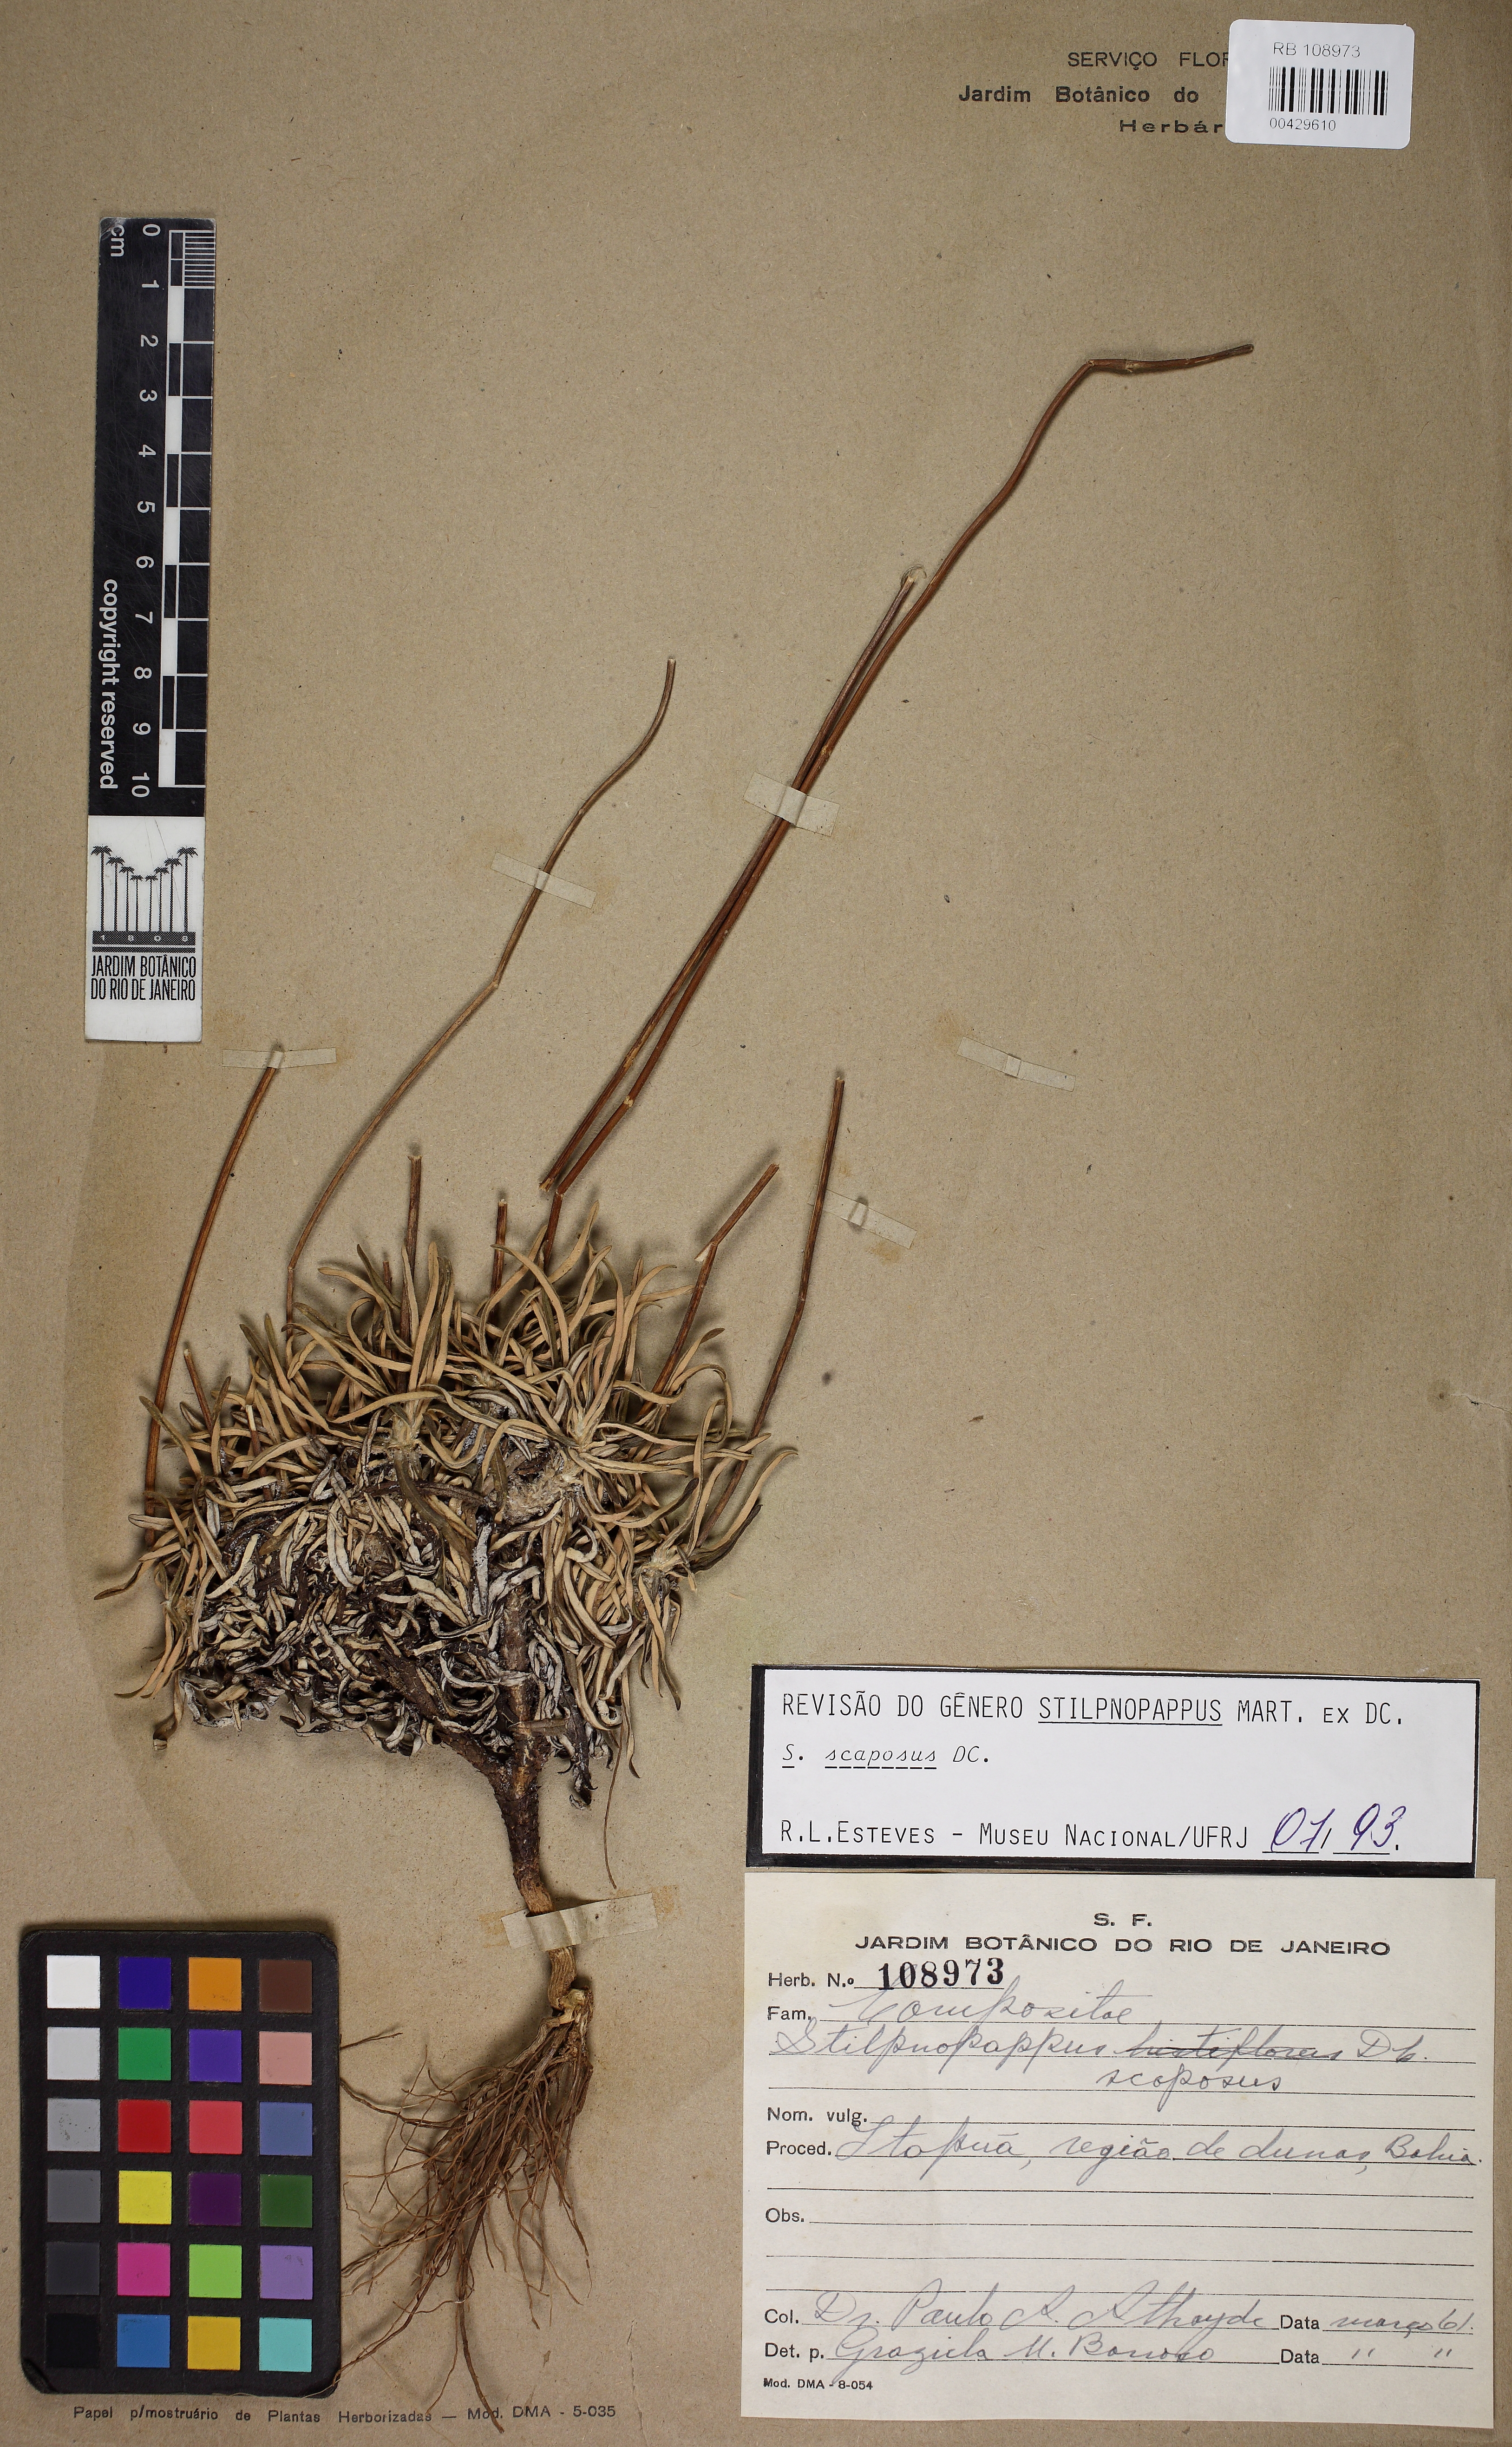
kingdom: Plantae
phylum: Tracheophyta
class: Magnoliopsida
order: Asterales
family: Asteraceae
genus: Stilpnopappus
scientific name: Stilpnopappus scaposus
